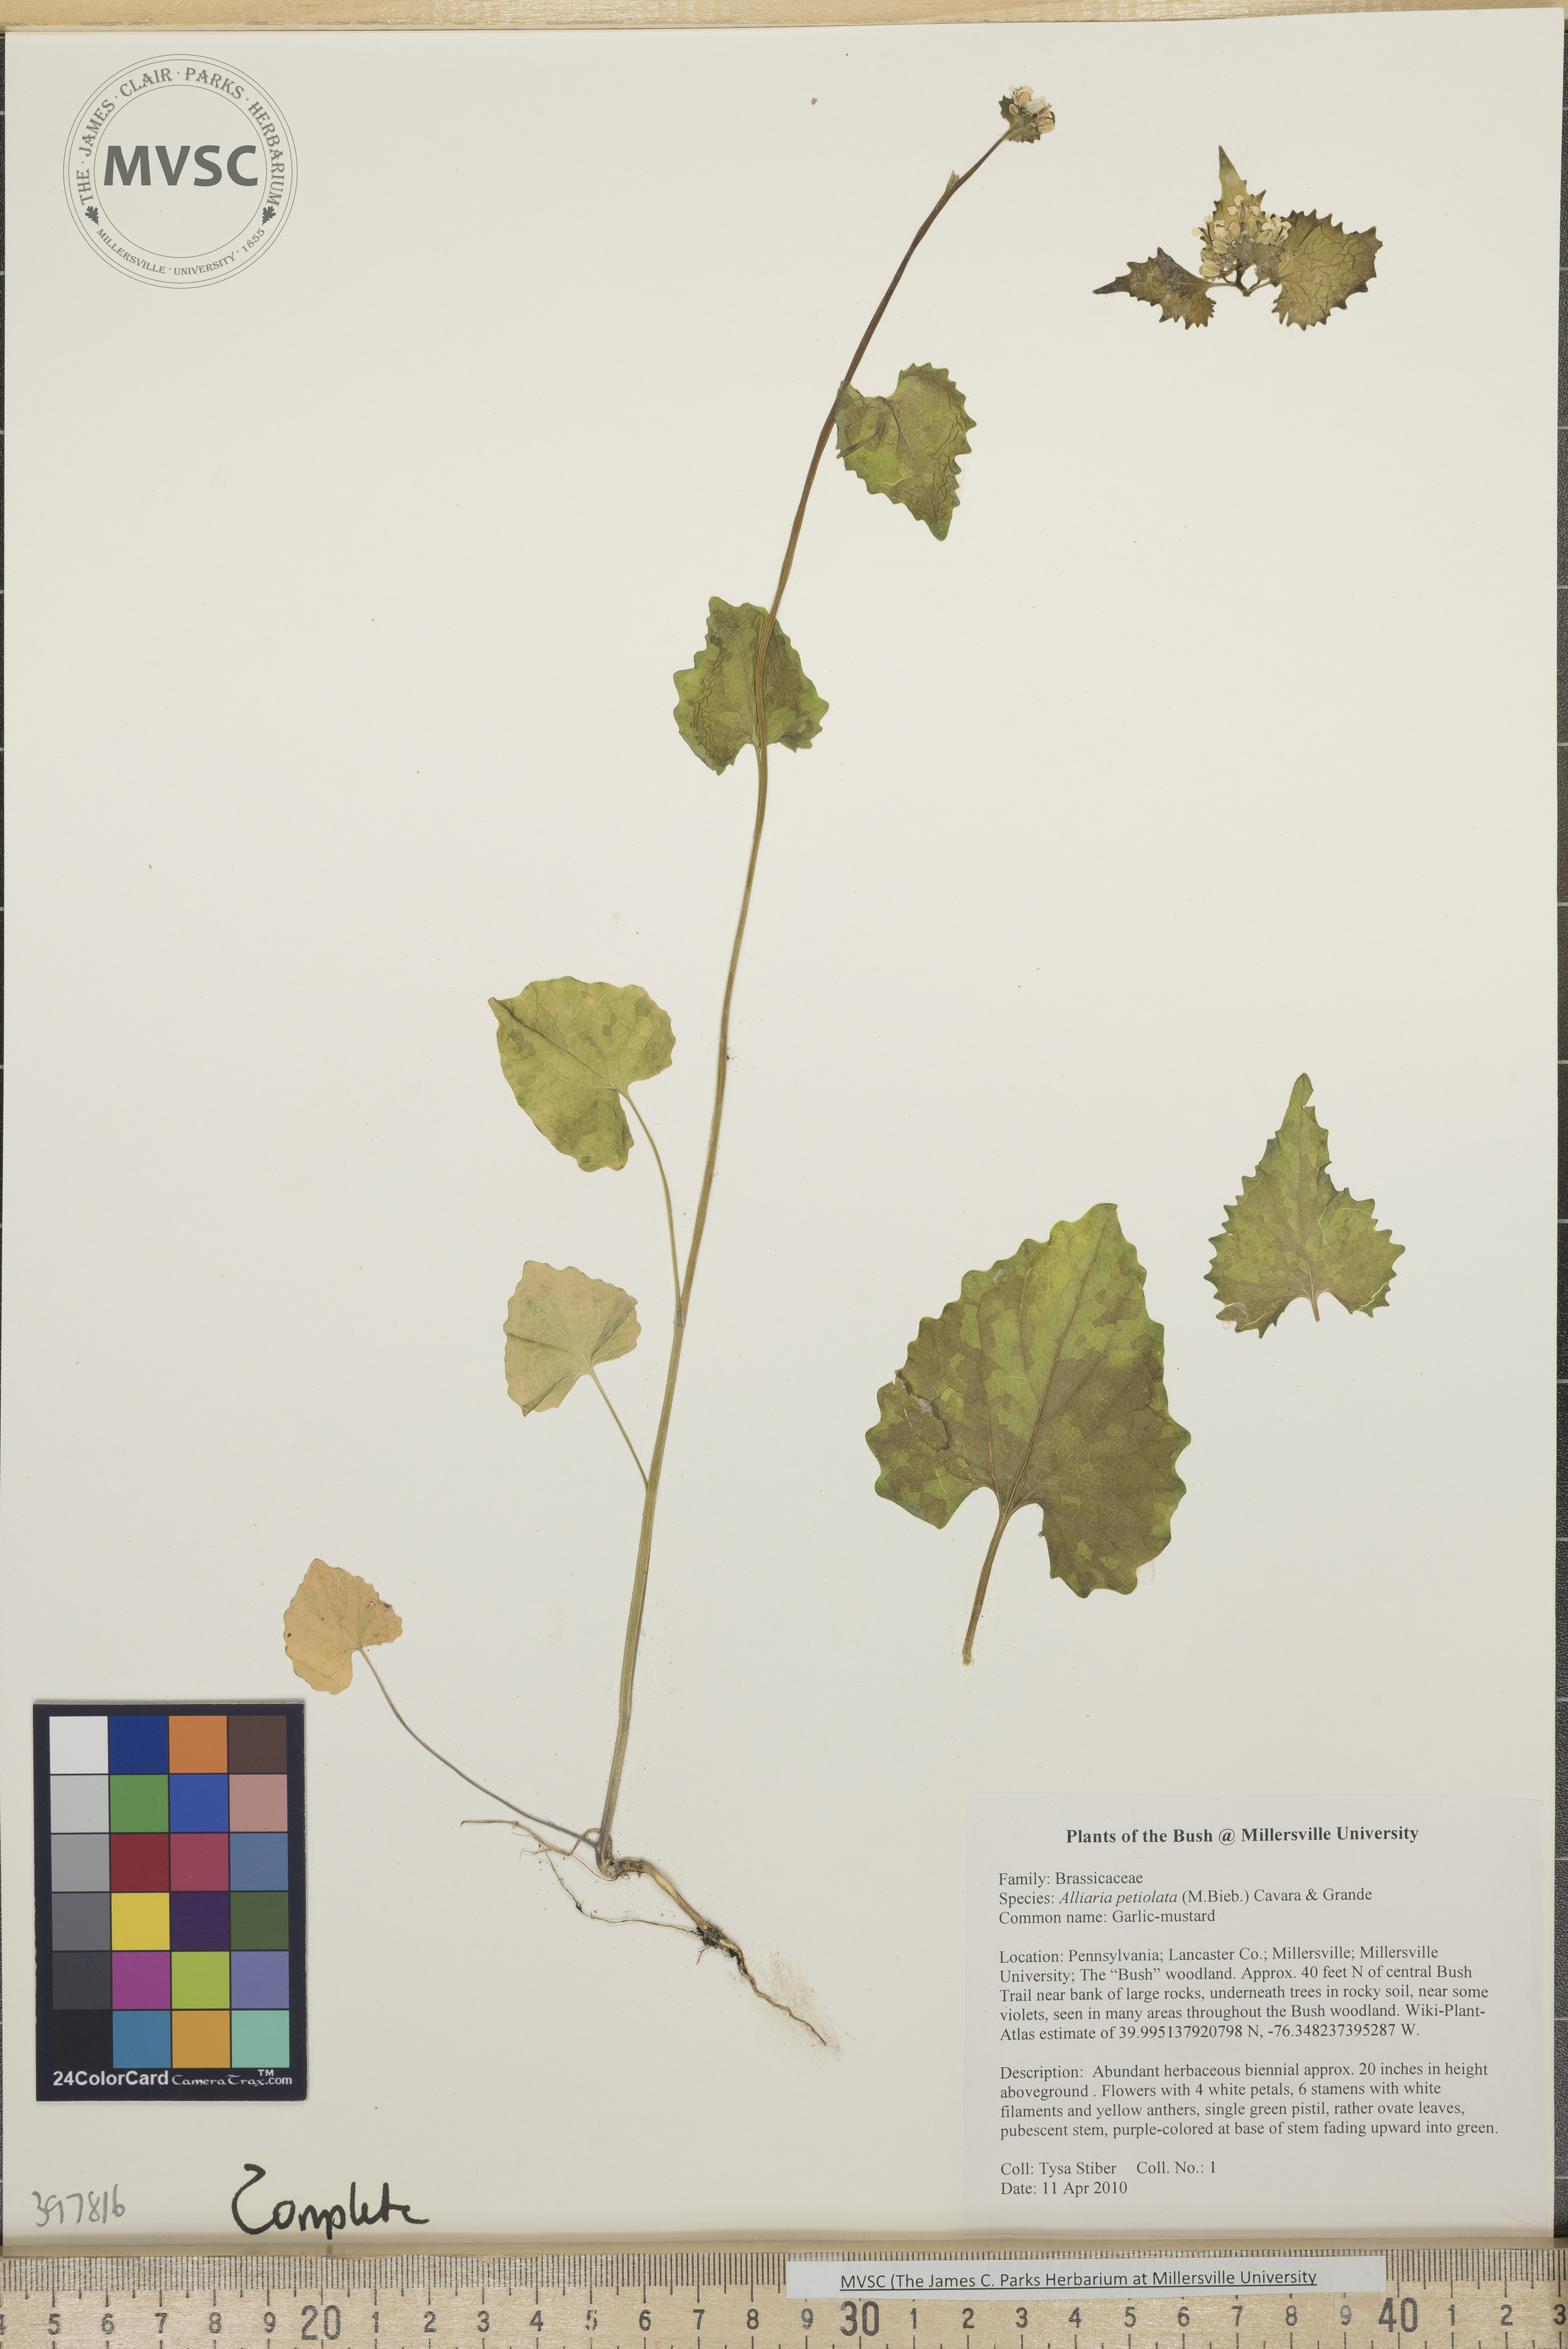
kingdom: Plantae
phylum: Tracheophyta
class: Magnoliopsida
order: Brassicales
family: Brassicaceae
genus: Alliaria
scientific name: Alliaria petiolata
